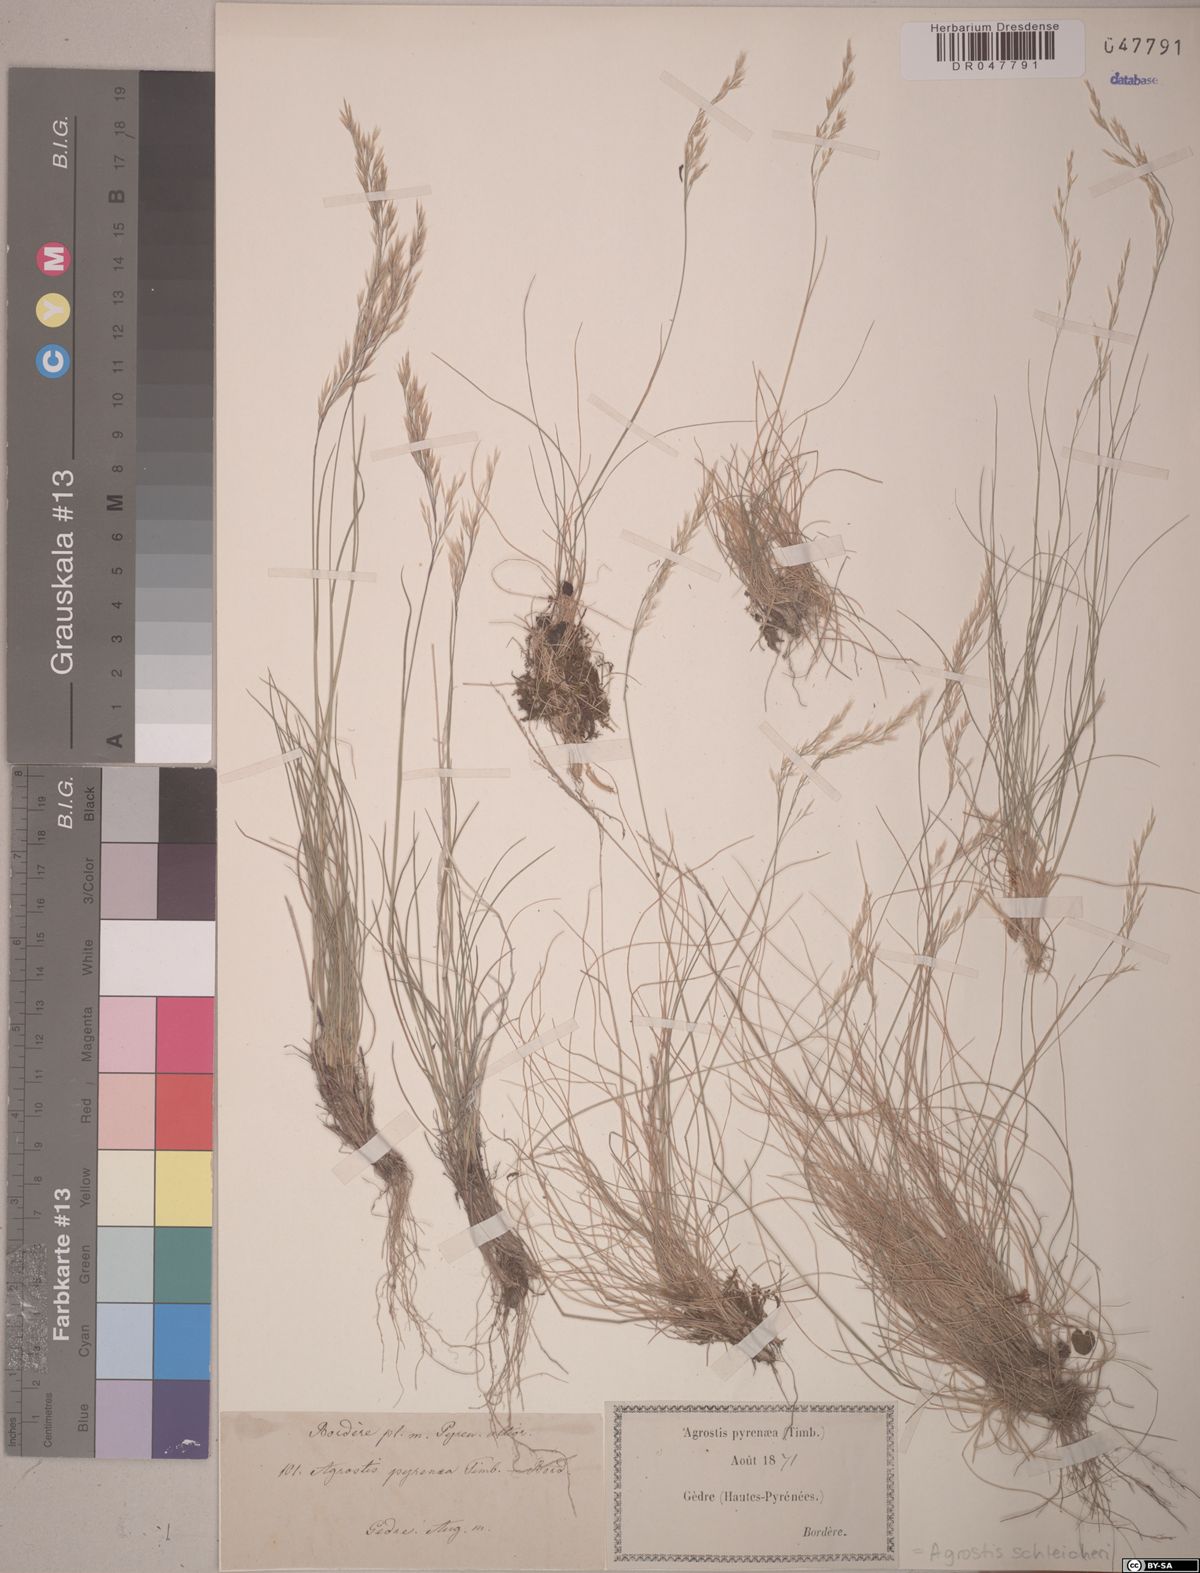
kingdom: Plantae
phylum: Tracheophyta
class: Liliopsida
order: Poales
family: Poaceae
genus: Alpagrostis
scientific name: Alpagrostis schleicheri
